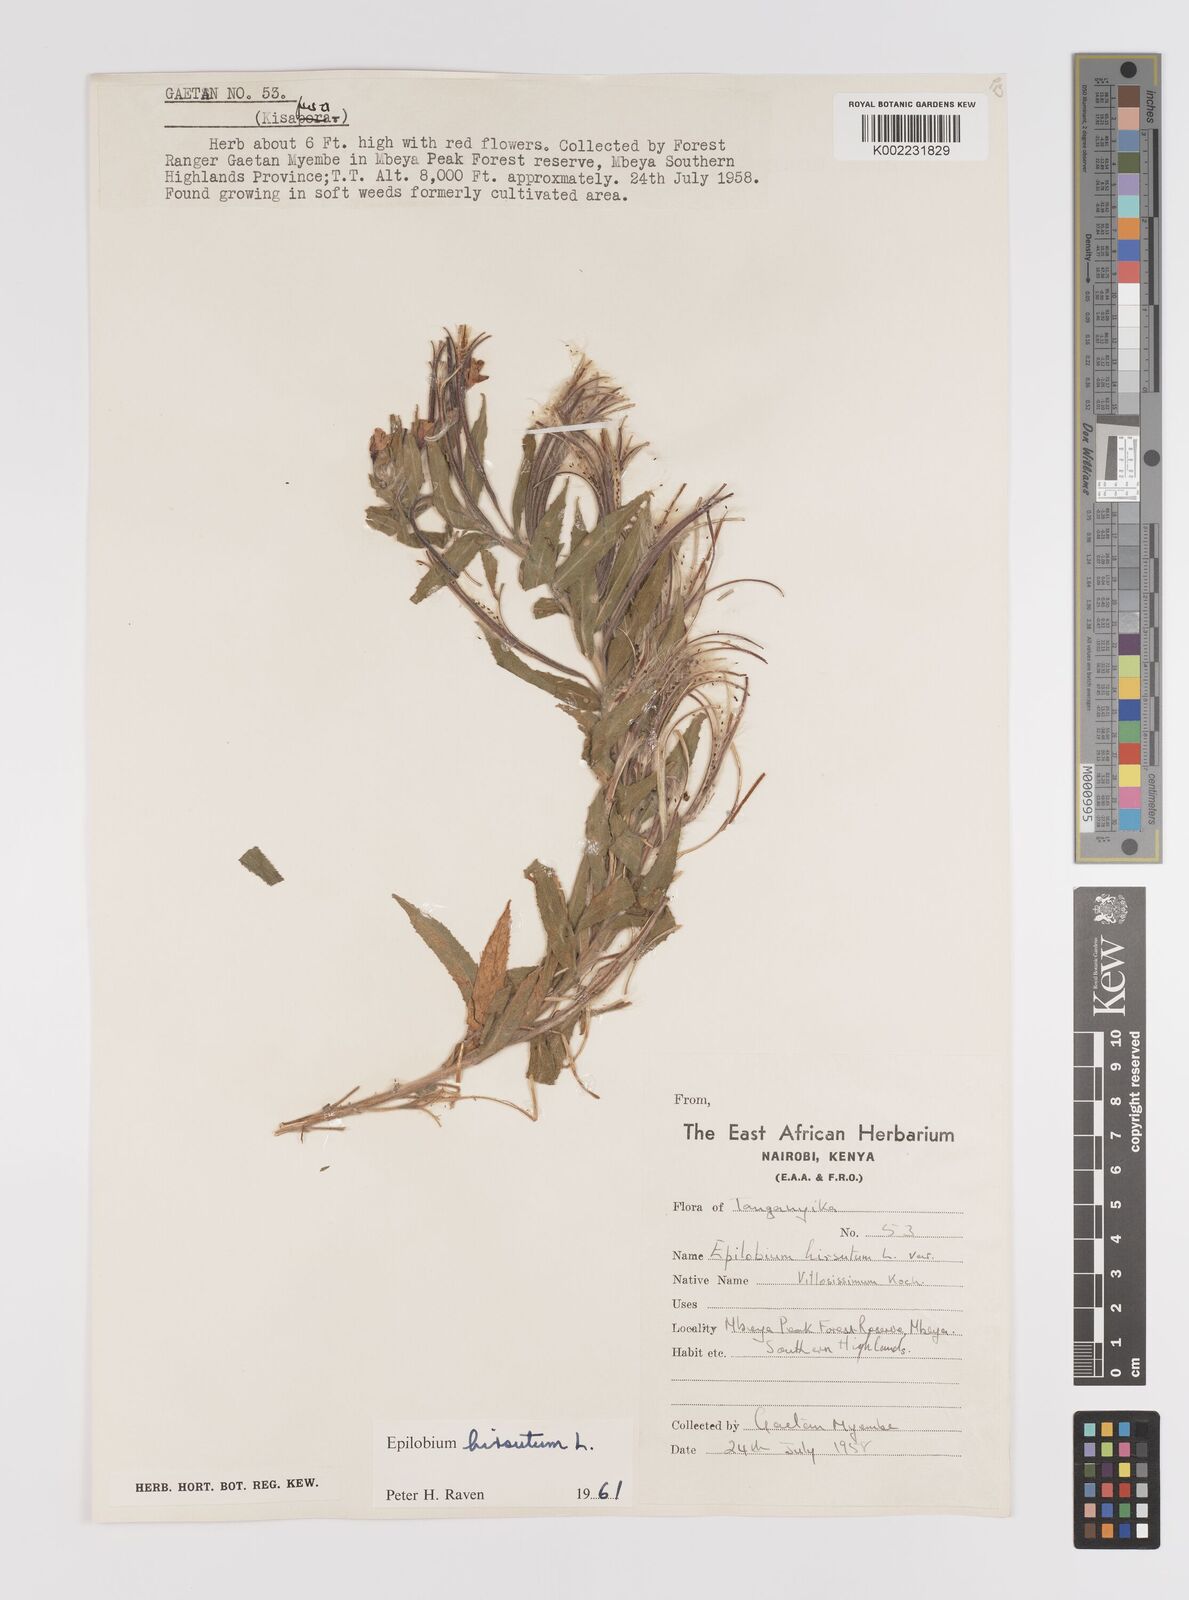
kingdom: Plantae
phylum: Tracheophyta
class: Magnoliopsida
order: Myrtales
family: Onagraceae
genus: Epilobium
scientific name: Epilobium hirsutum
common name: Great willowherb
